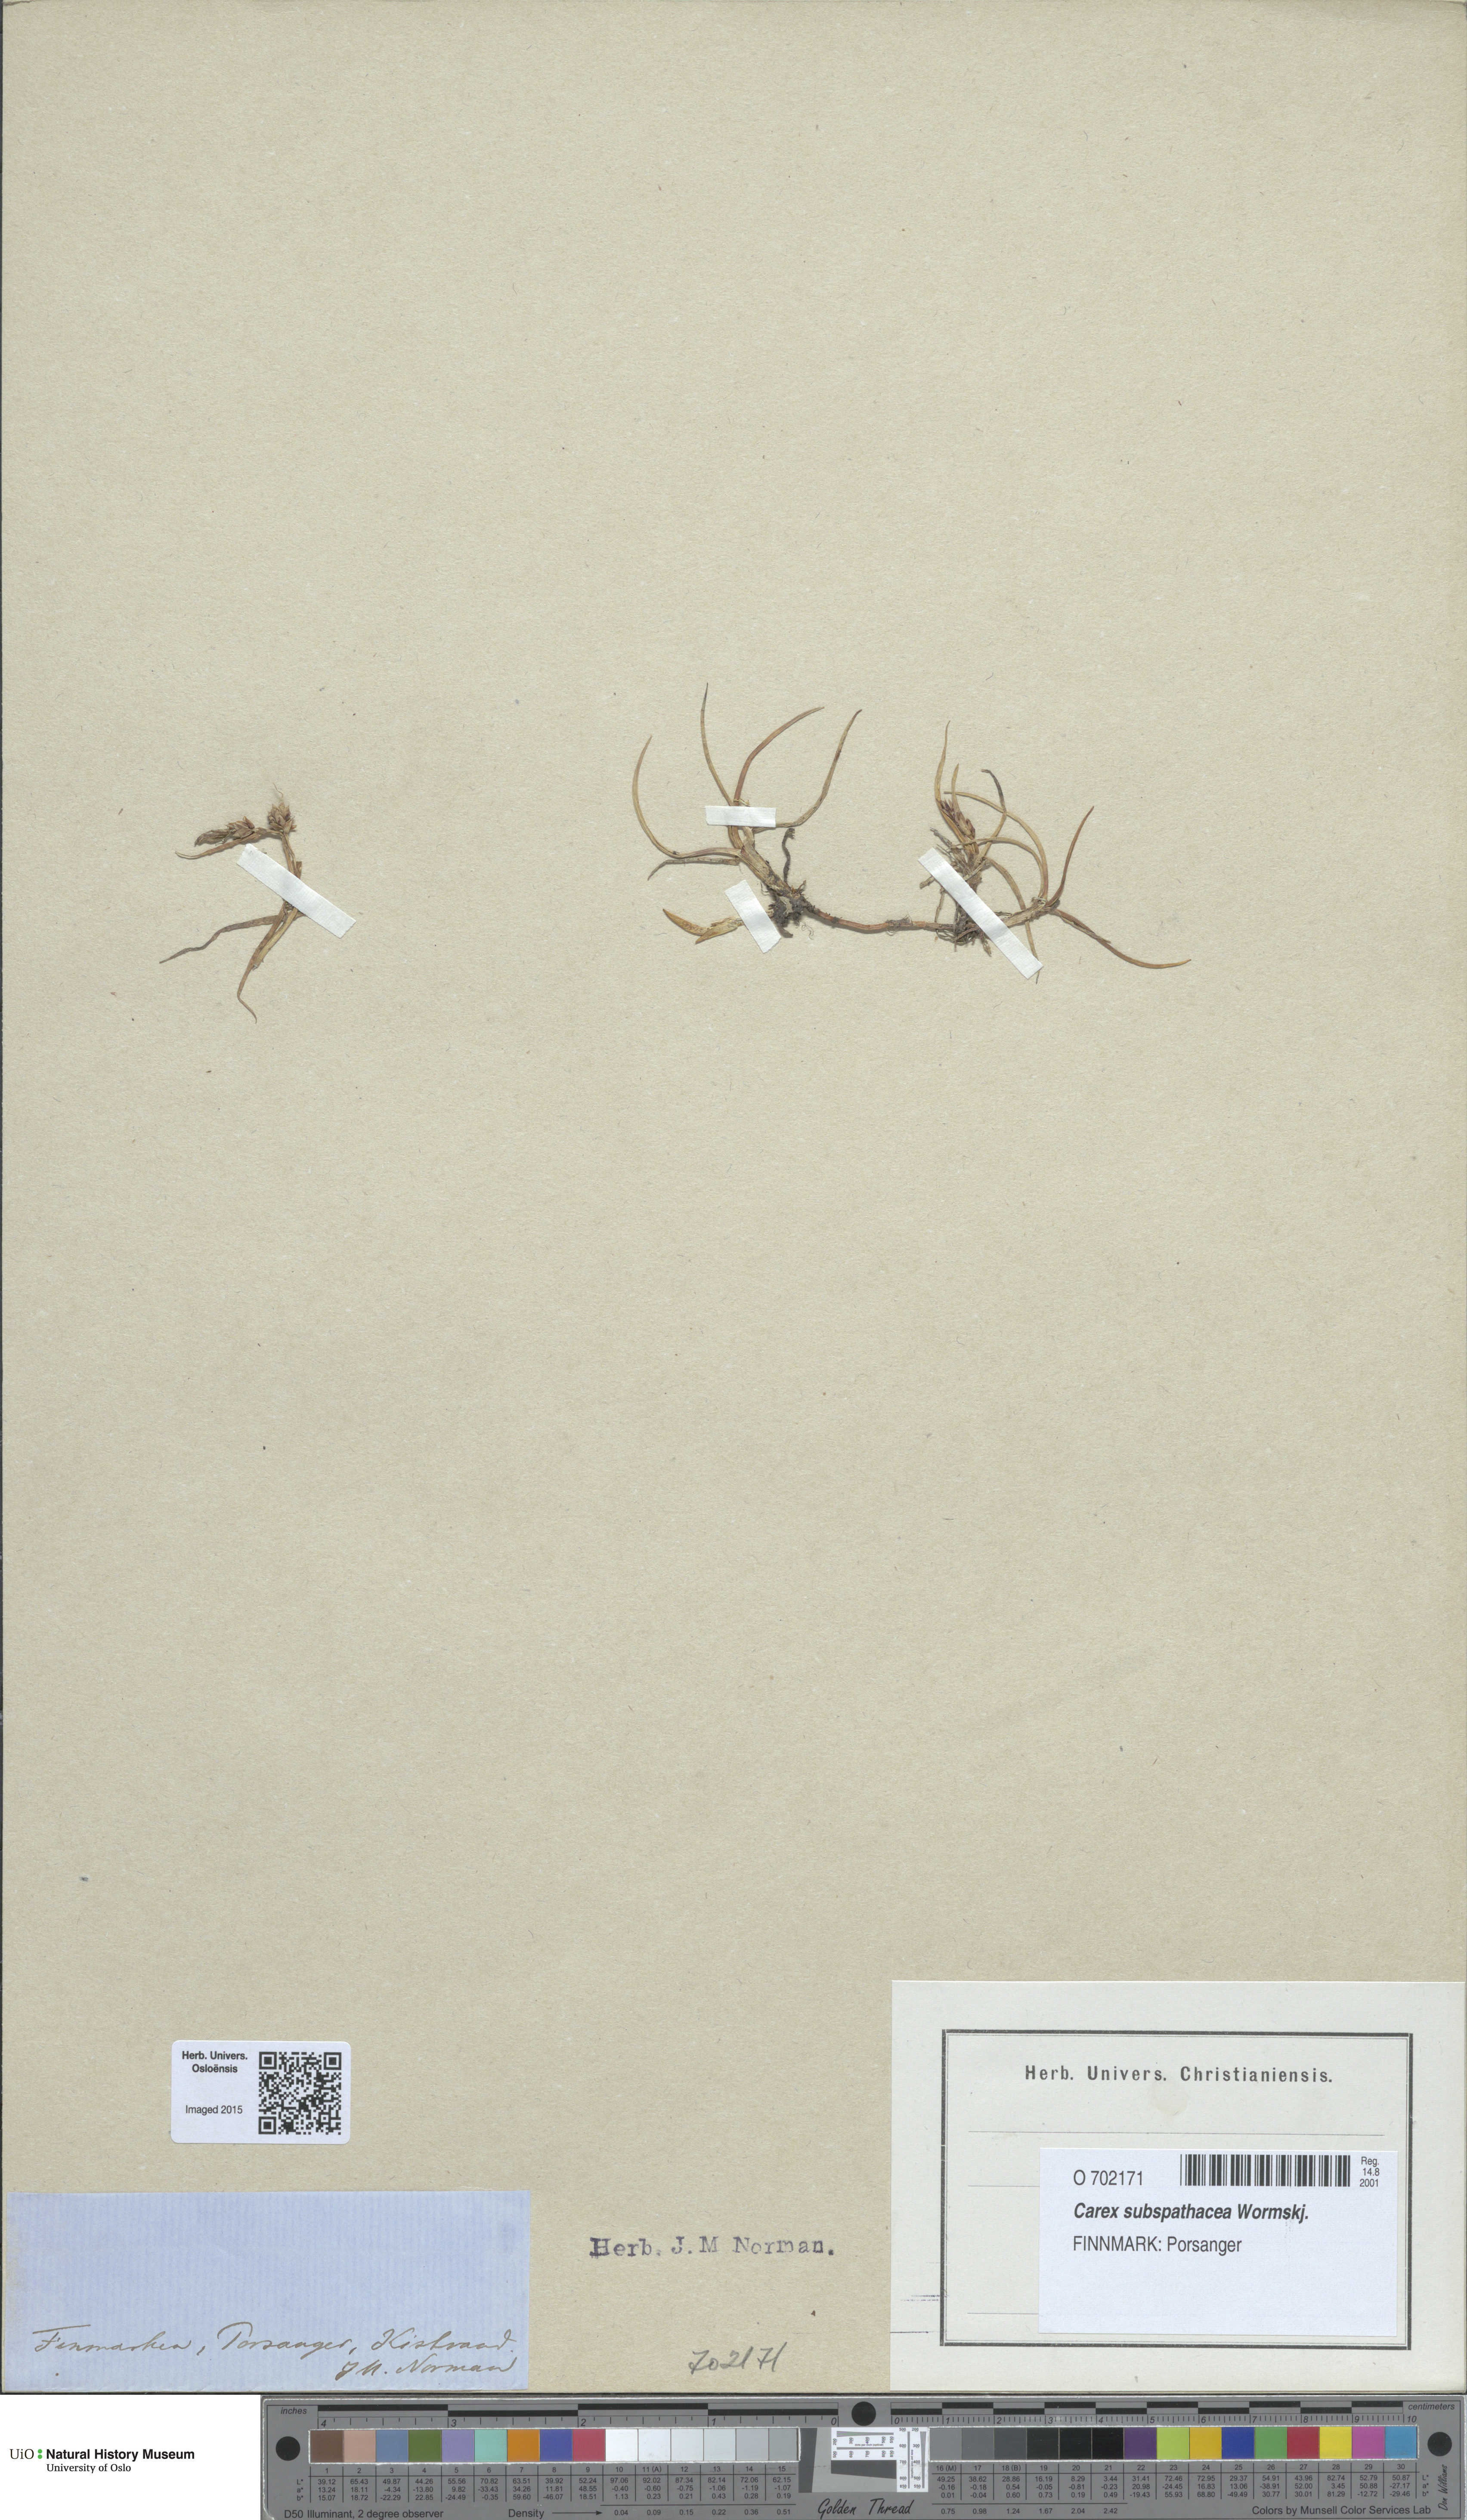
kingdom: Plantae
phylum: Tracheophyta
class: Liliopsida
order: Poales
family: Cyperaceae
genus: Carex
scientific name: Carex subspathacea
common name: Hoppner's sedge
